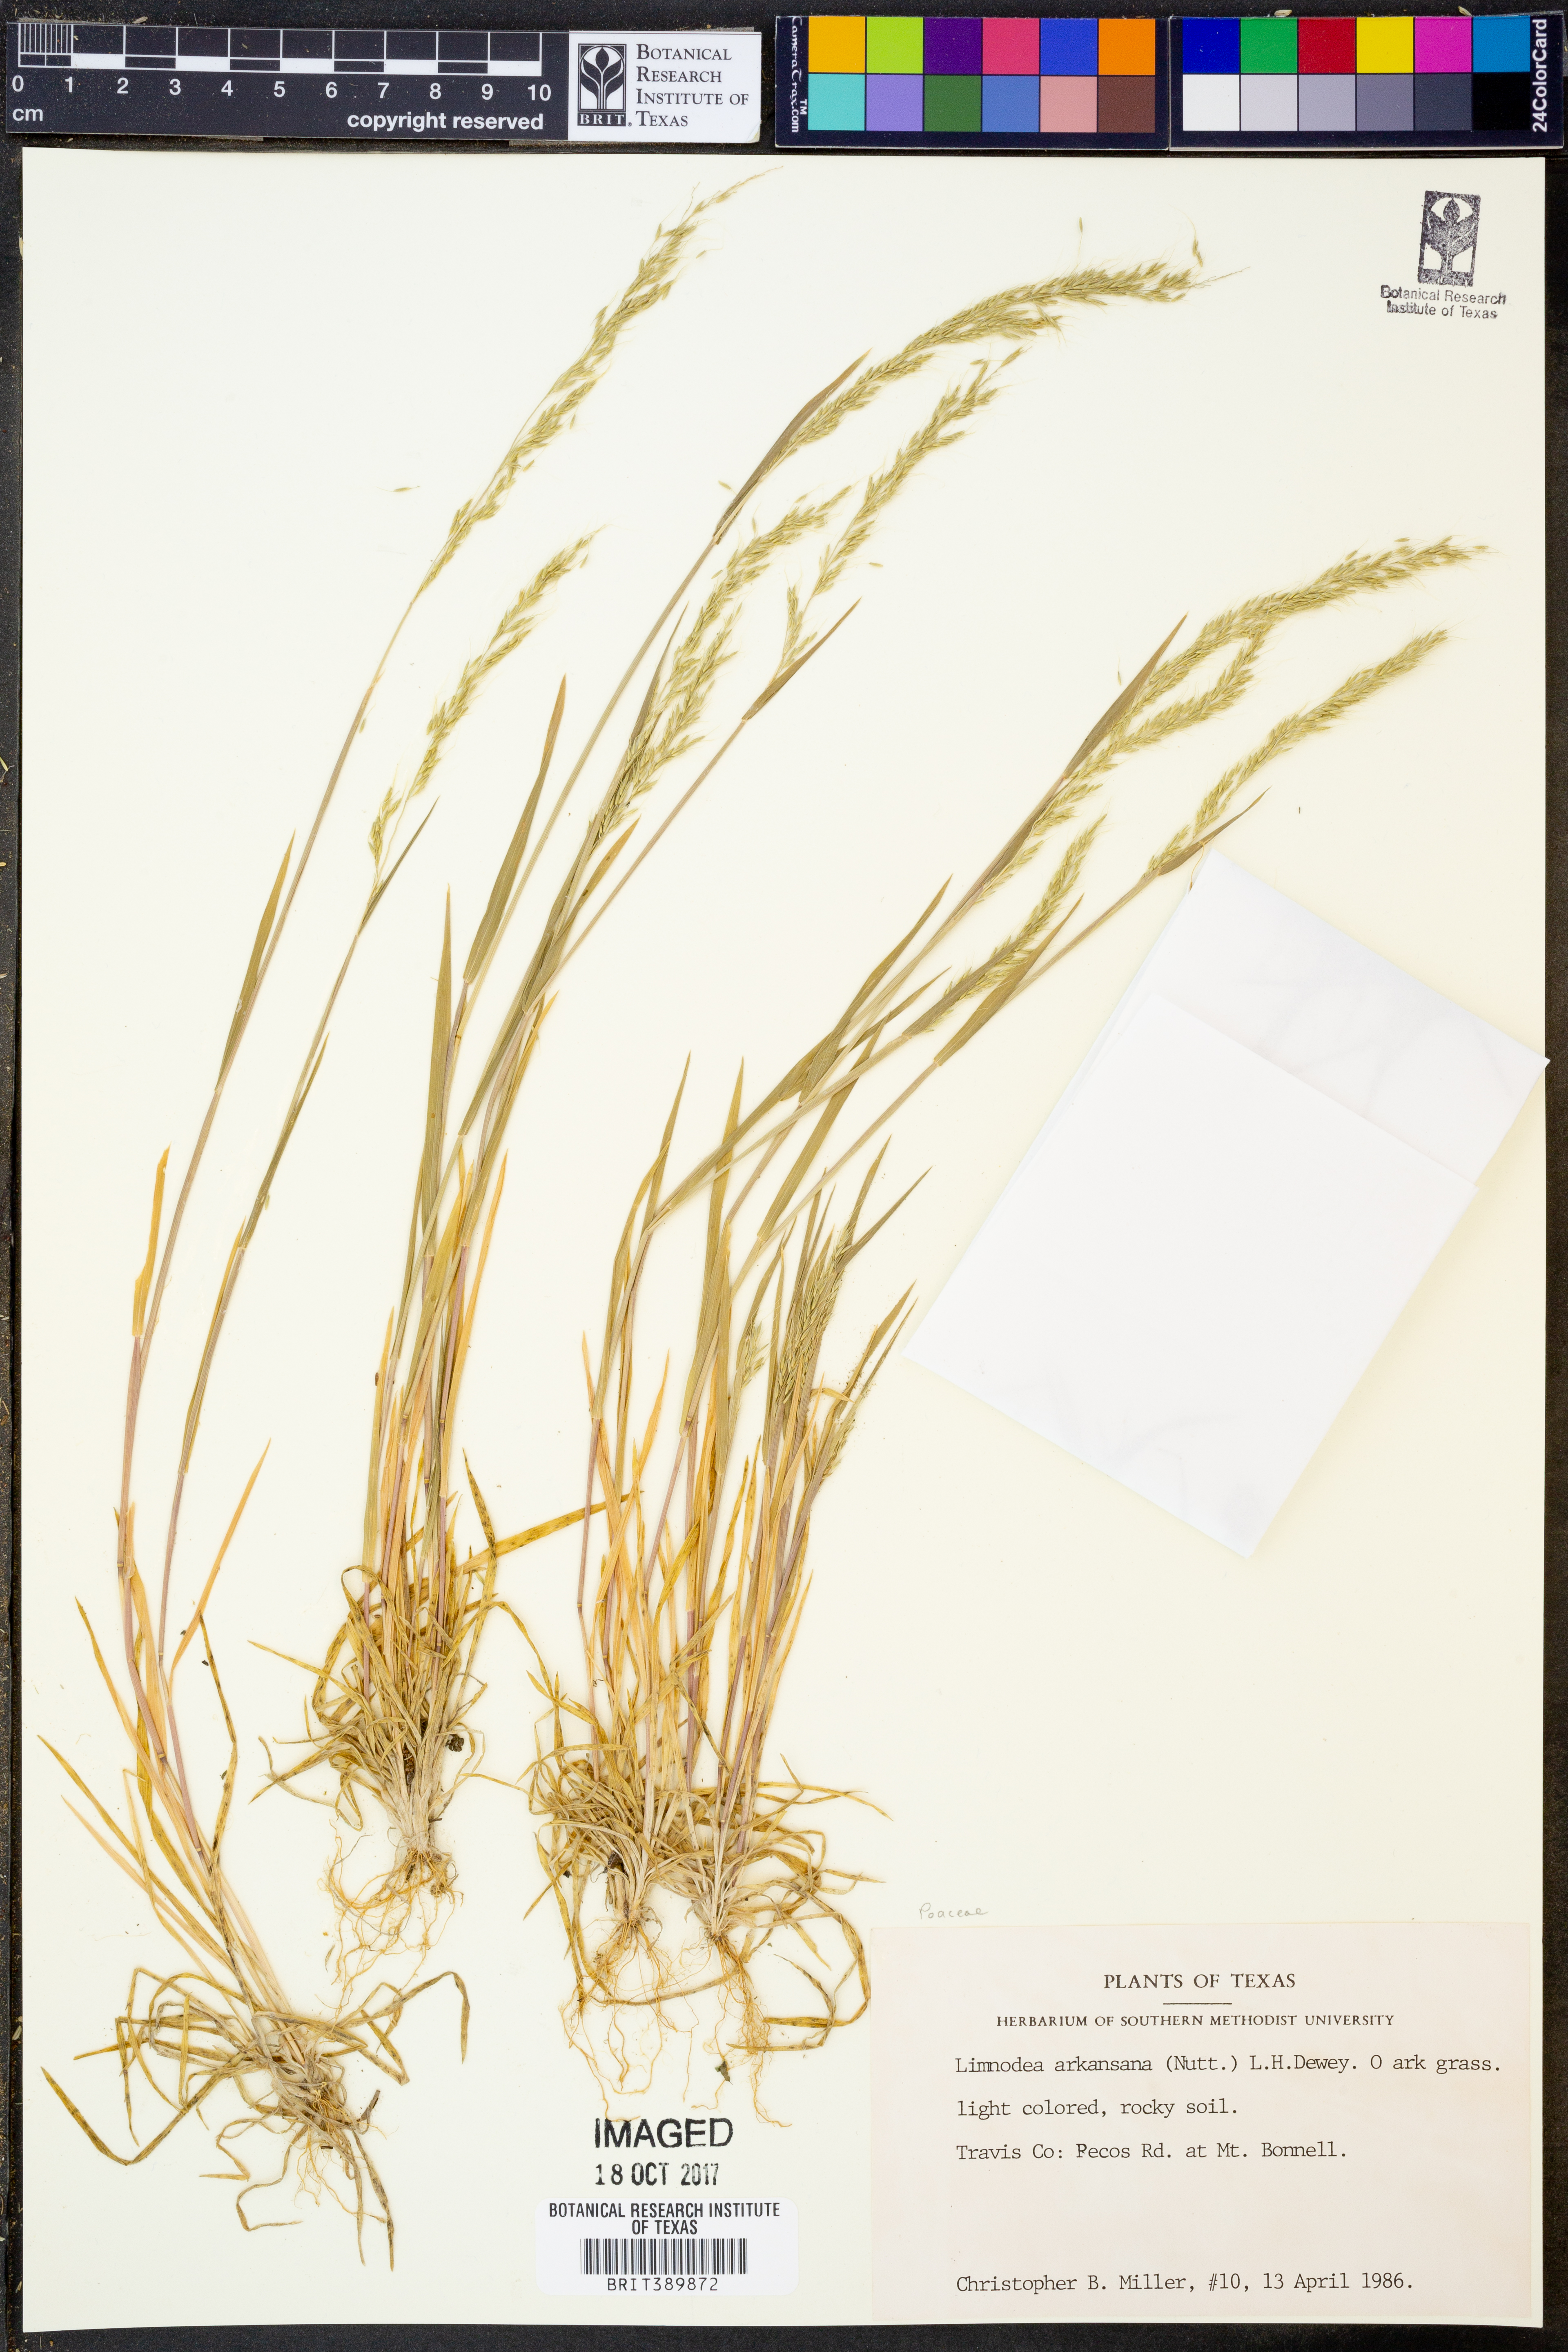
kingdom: Plantae
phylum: Tracheophyta
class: Liliopsida
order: Poales
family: Poaceae
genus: Limnodea
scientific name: Limnodea arkansana
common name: Ozark-grass
